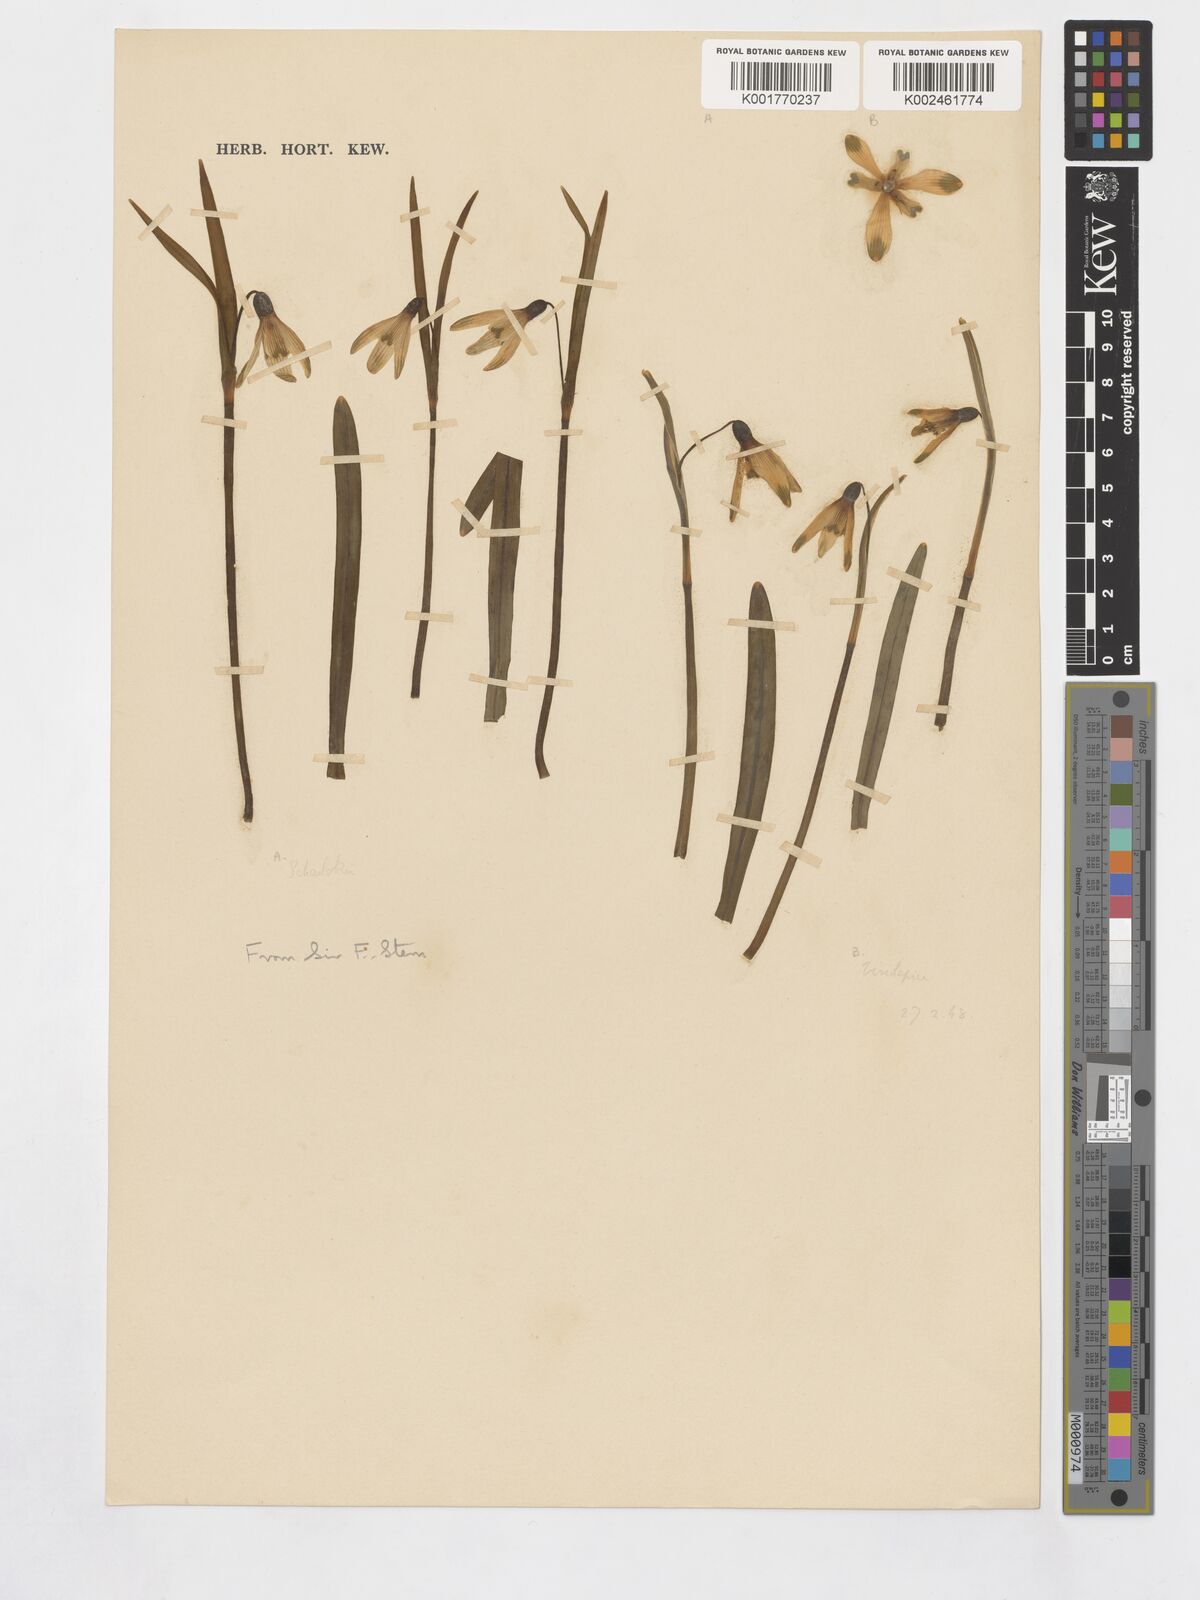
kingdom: Plantae
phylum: Tracheophyta
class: Liliopsida
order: Asparagales
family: Amaryllidaceae
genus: Galanthus
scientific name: Galanthus nivalis
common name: Snowdrop
